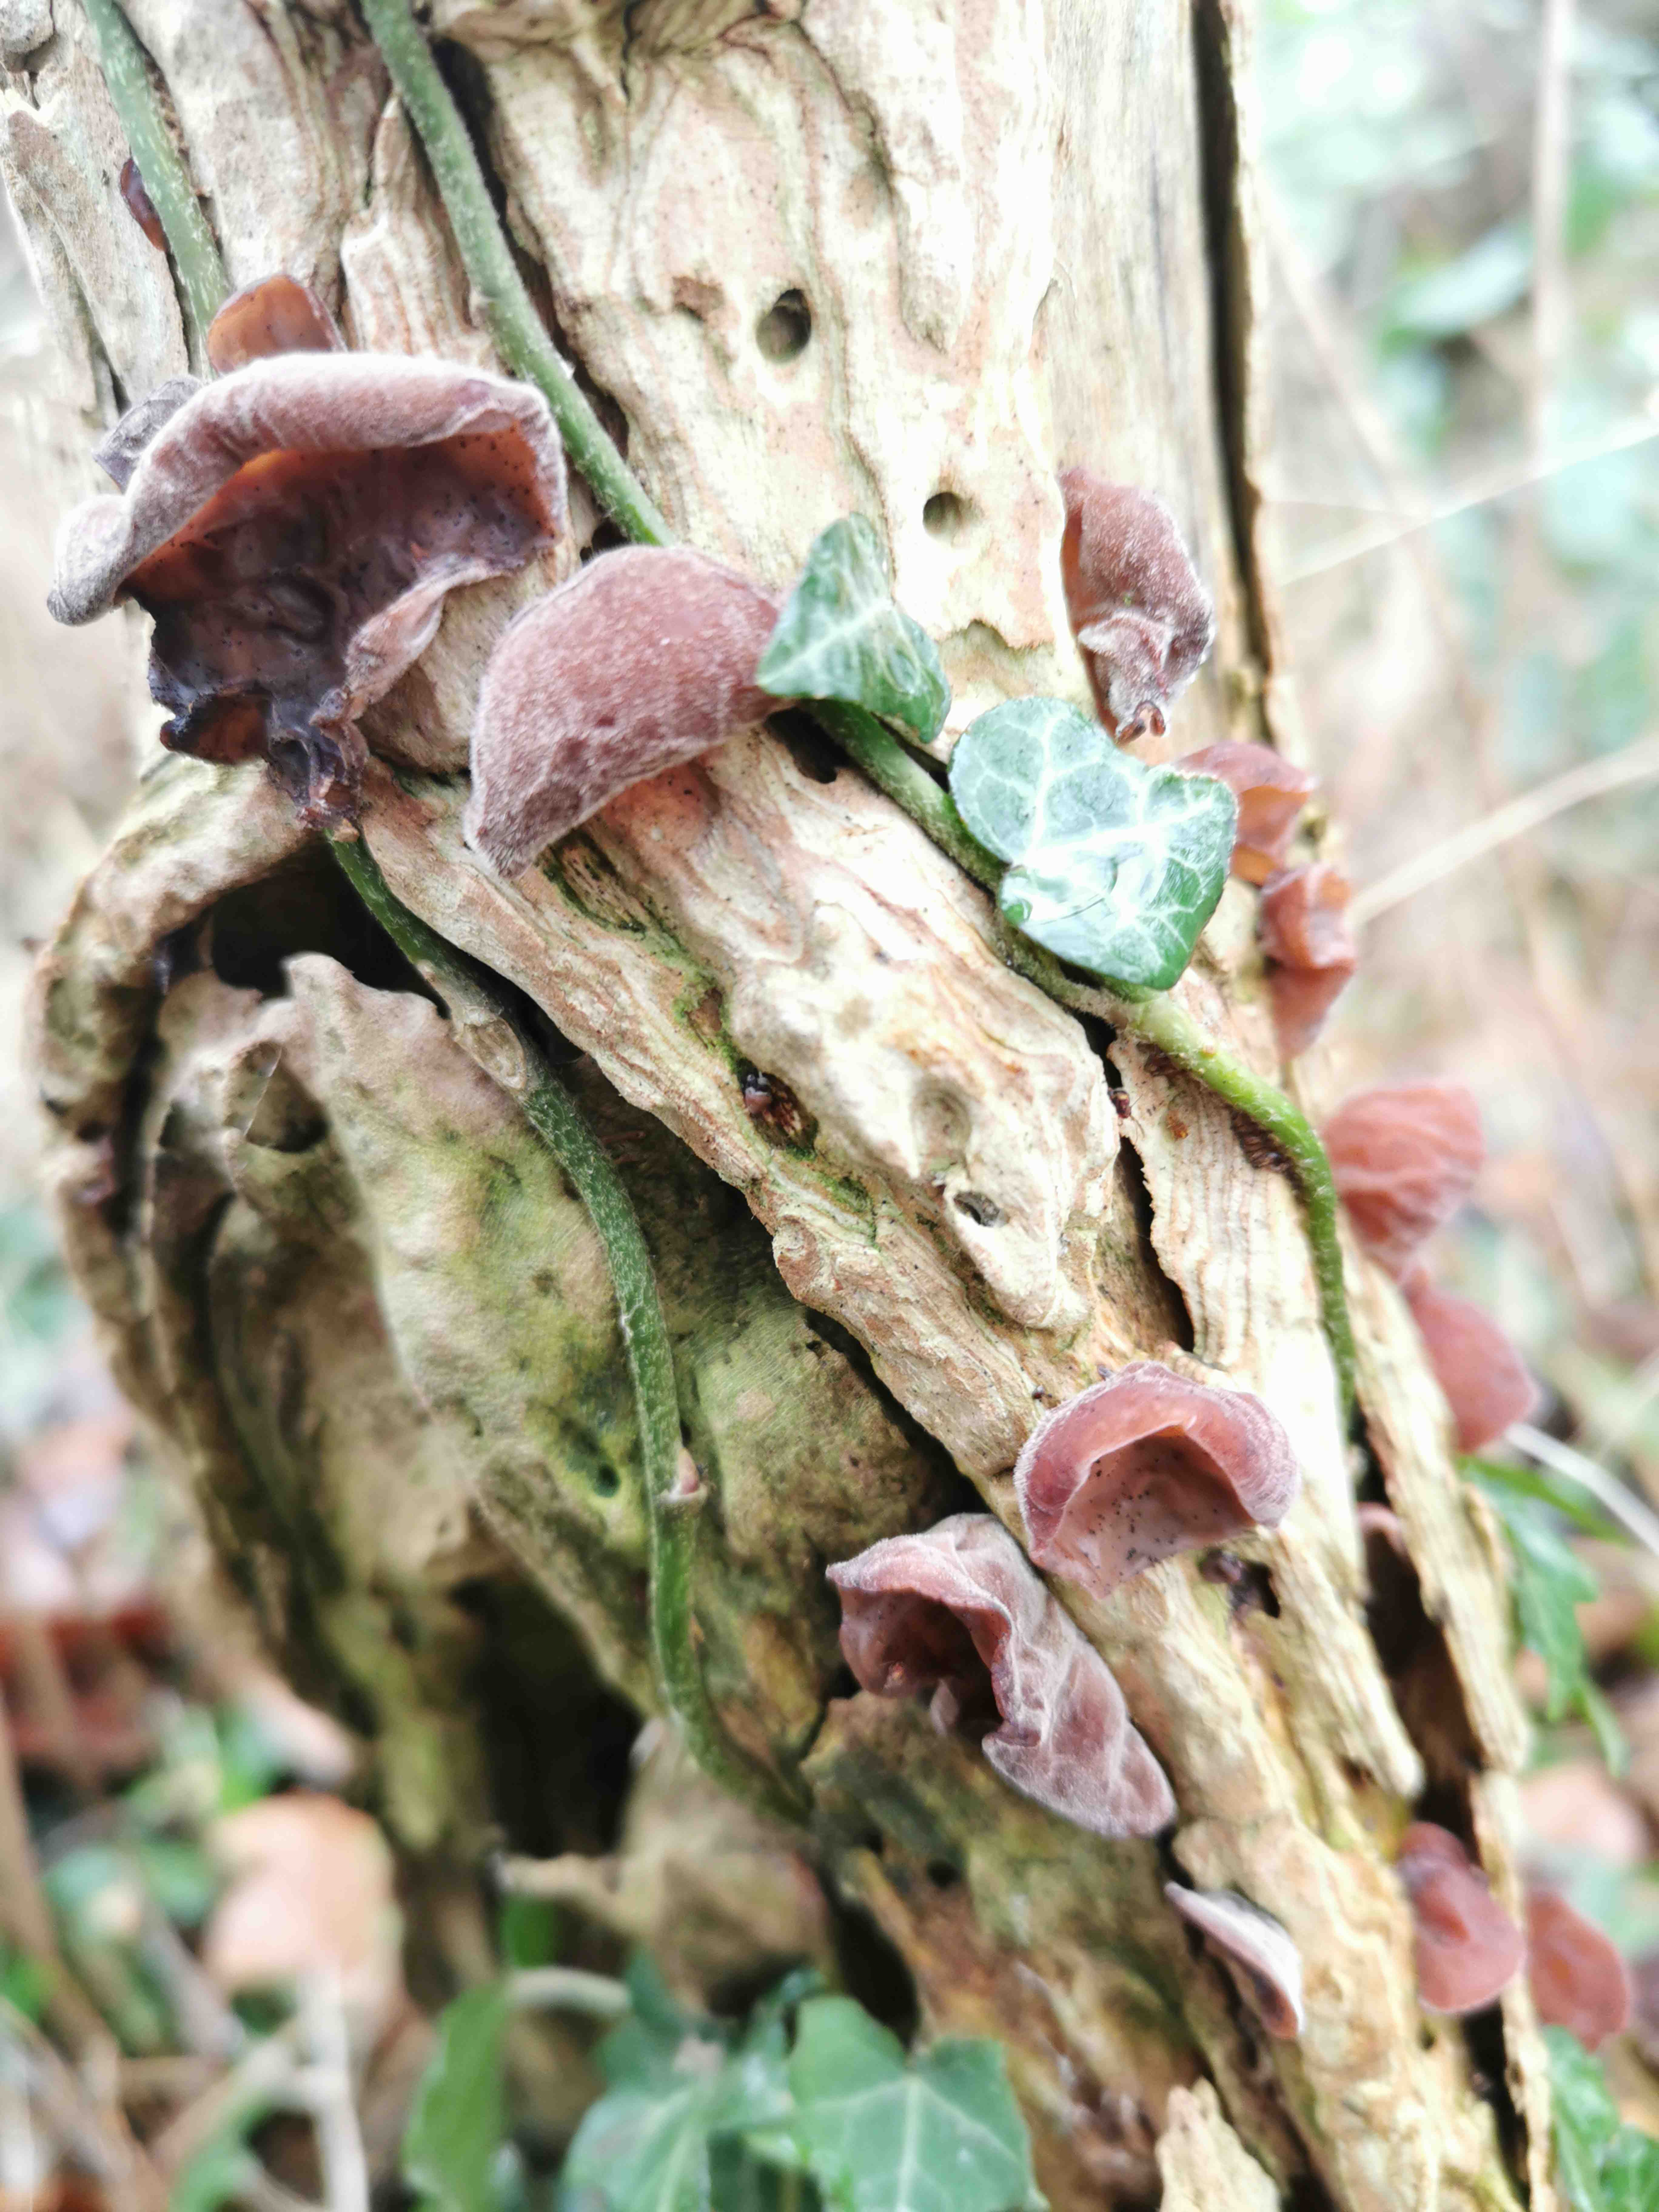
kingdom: Fungi
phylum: Basidiomycota
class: Agaricomycetes
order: Auriculariales
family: Auriculariaceae
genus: Auricularia
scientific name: Auricularia auricula-judae
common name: almindelig judasøre
